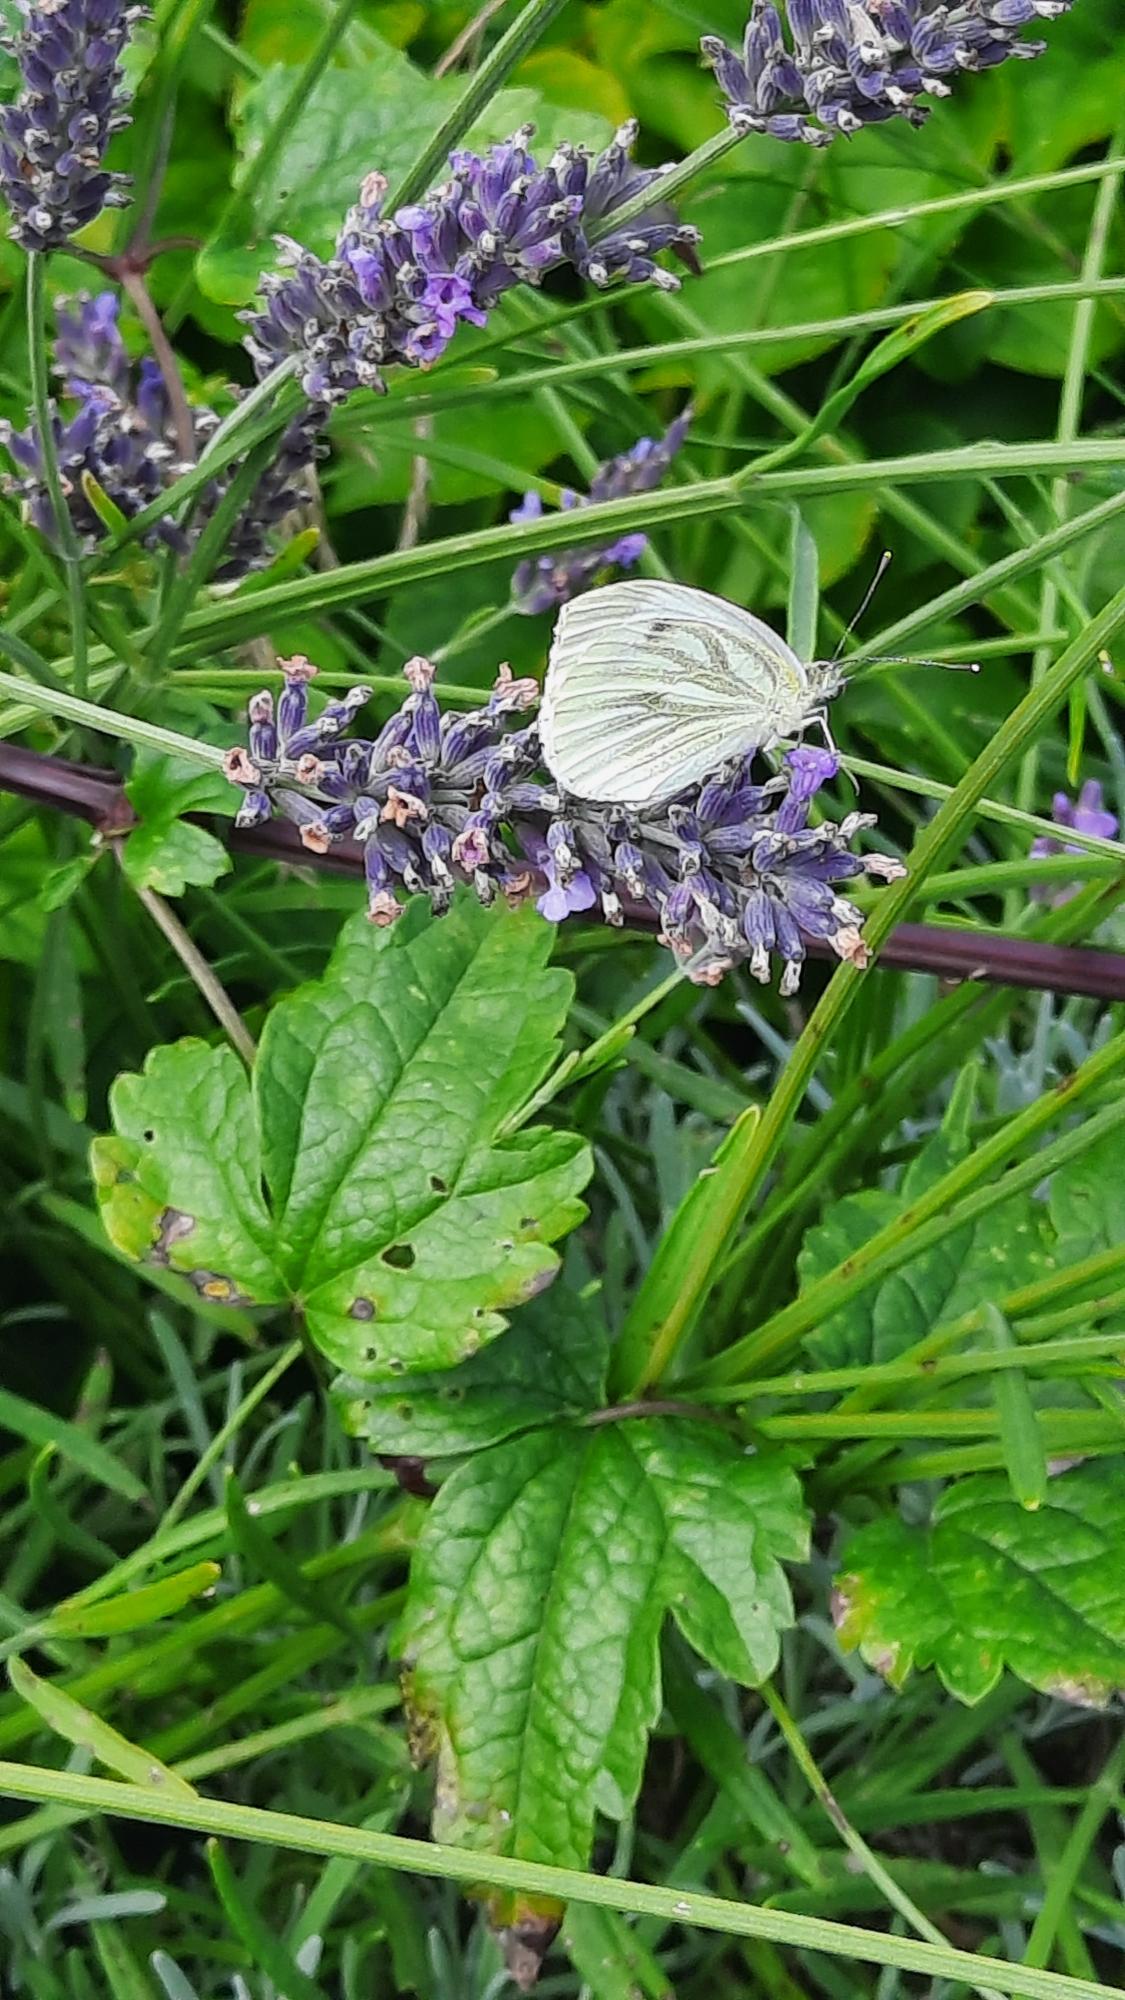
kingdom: Animalia
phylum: Arthropoda
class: Insecta
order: Lepidoptera
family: Pieridae
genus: Pieris
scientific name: Pieris napi
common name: Grønåret kålsommerfugl
